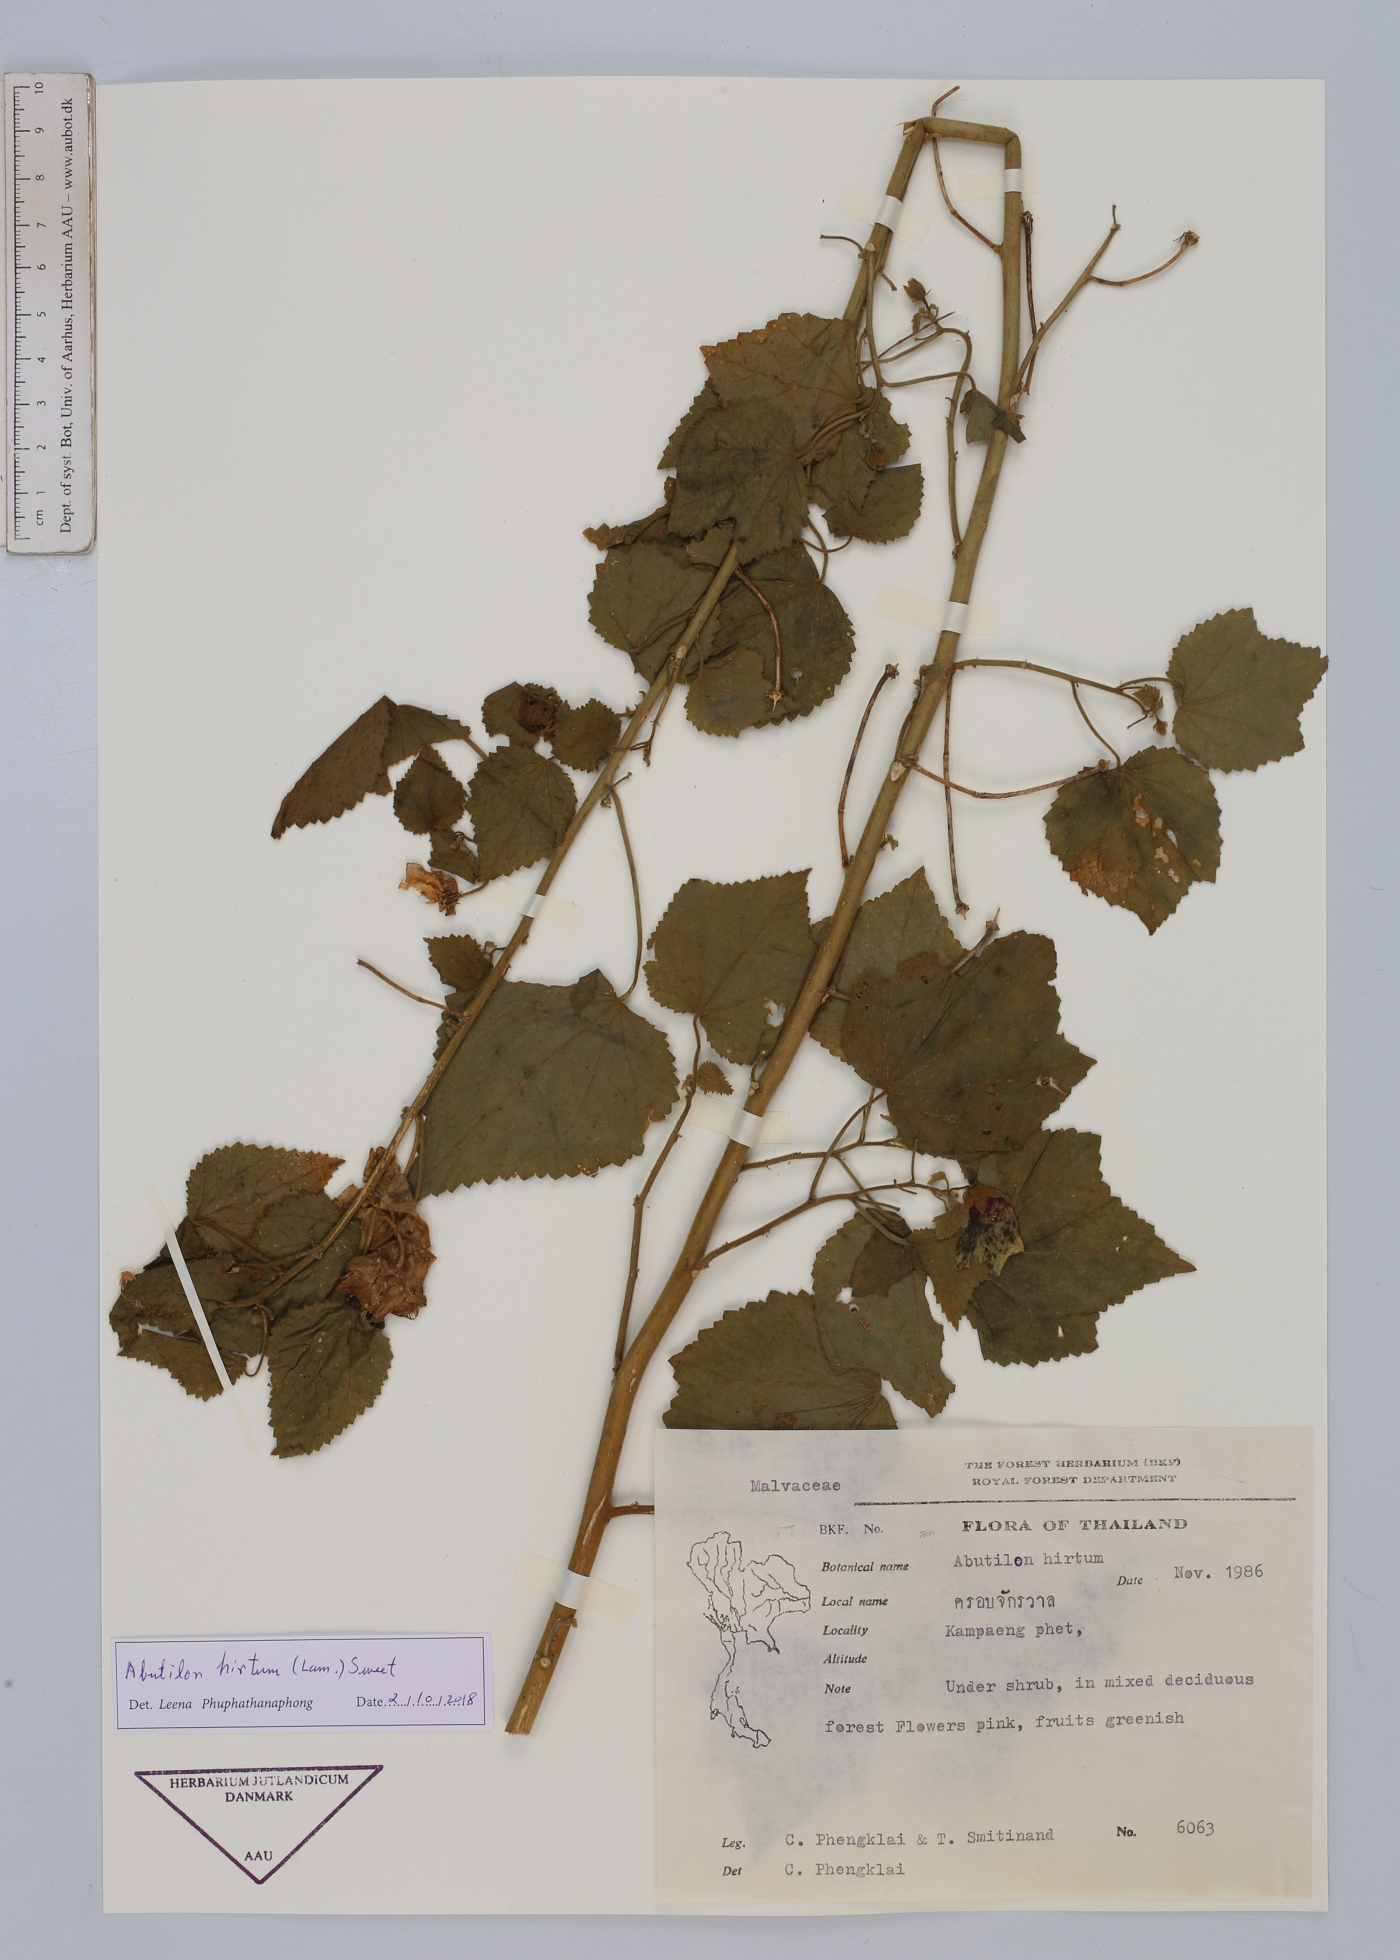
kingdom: Plantae
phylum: Tracheophyta
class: Magnoliopsida
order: Malvales
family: Malvaceae
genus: Abutilon
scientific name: Abutilon hirtum
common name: Florida keys indian mallow
